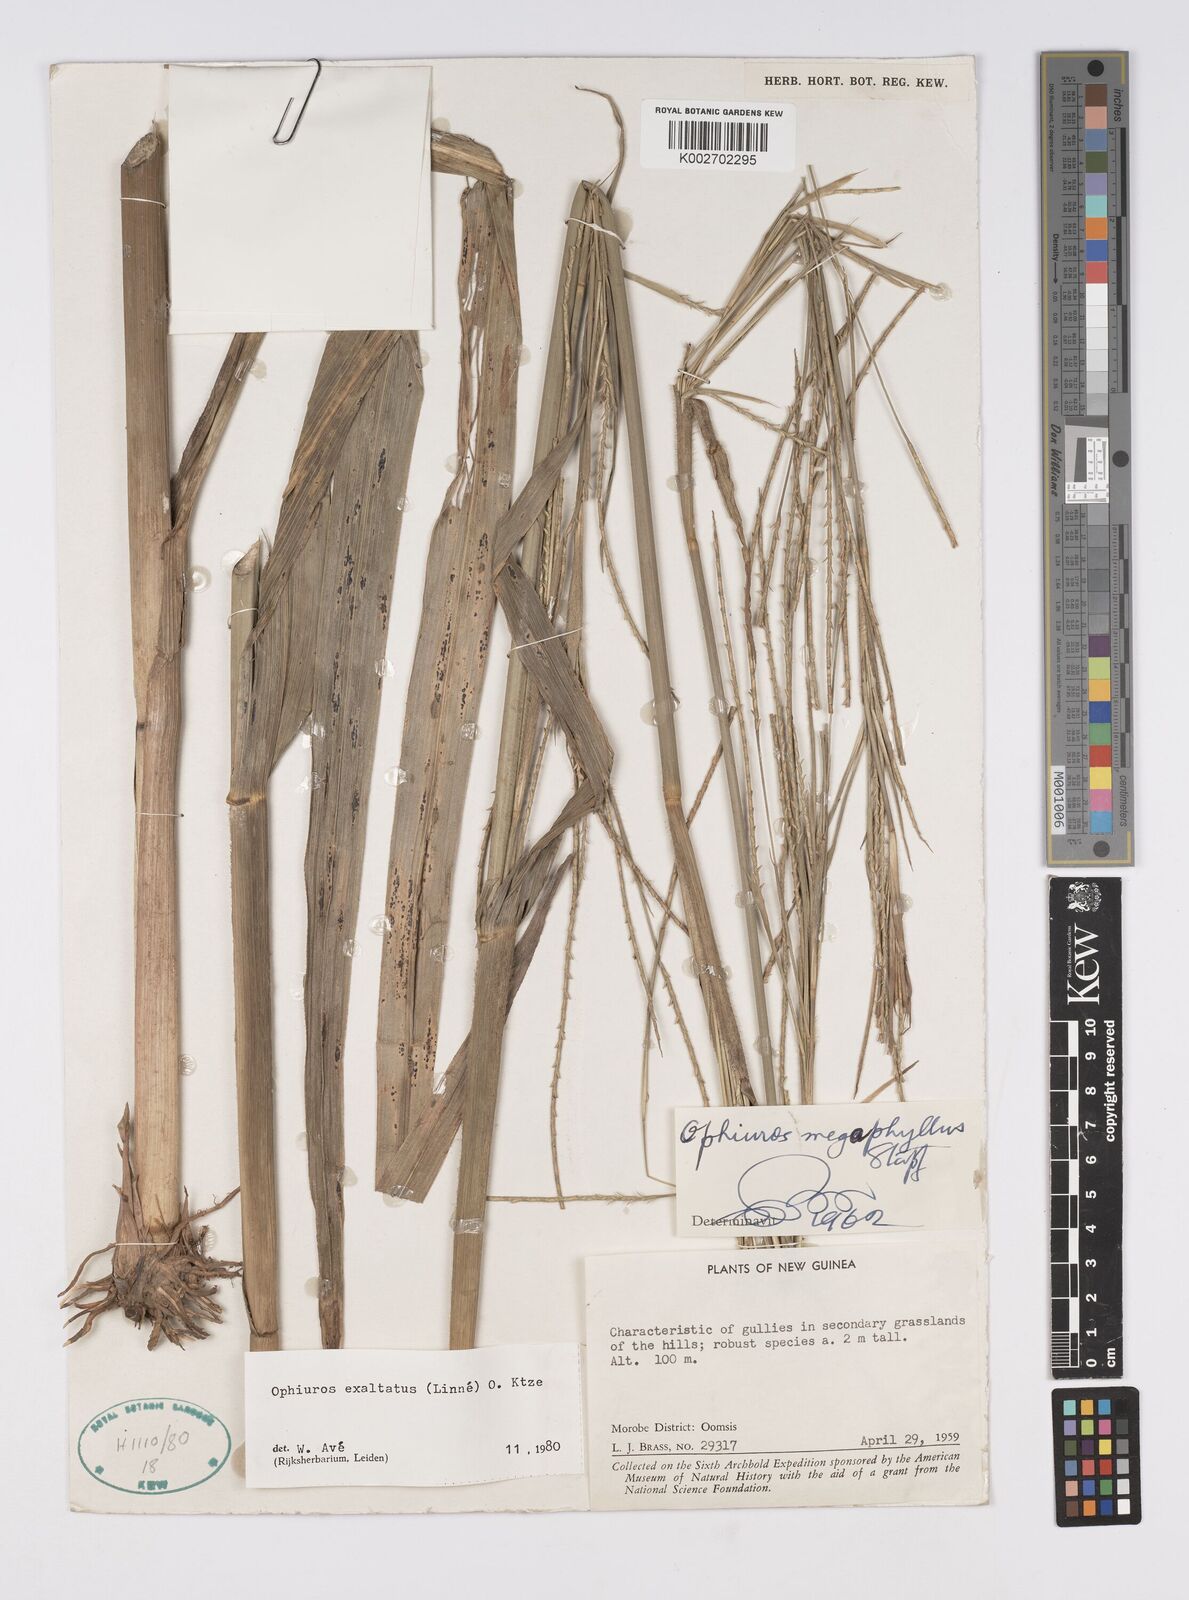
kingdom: Plantae
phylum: Tracheophyta
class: Liliopsida
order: Poales
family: Poaceae
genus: Ophiuros
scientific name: Ophiuros megaphyllus
